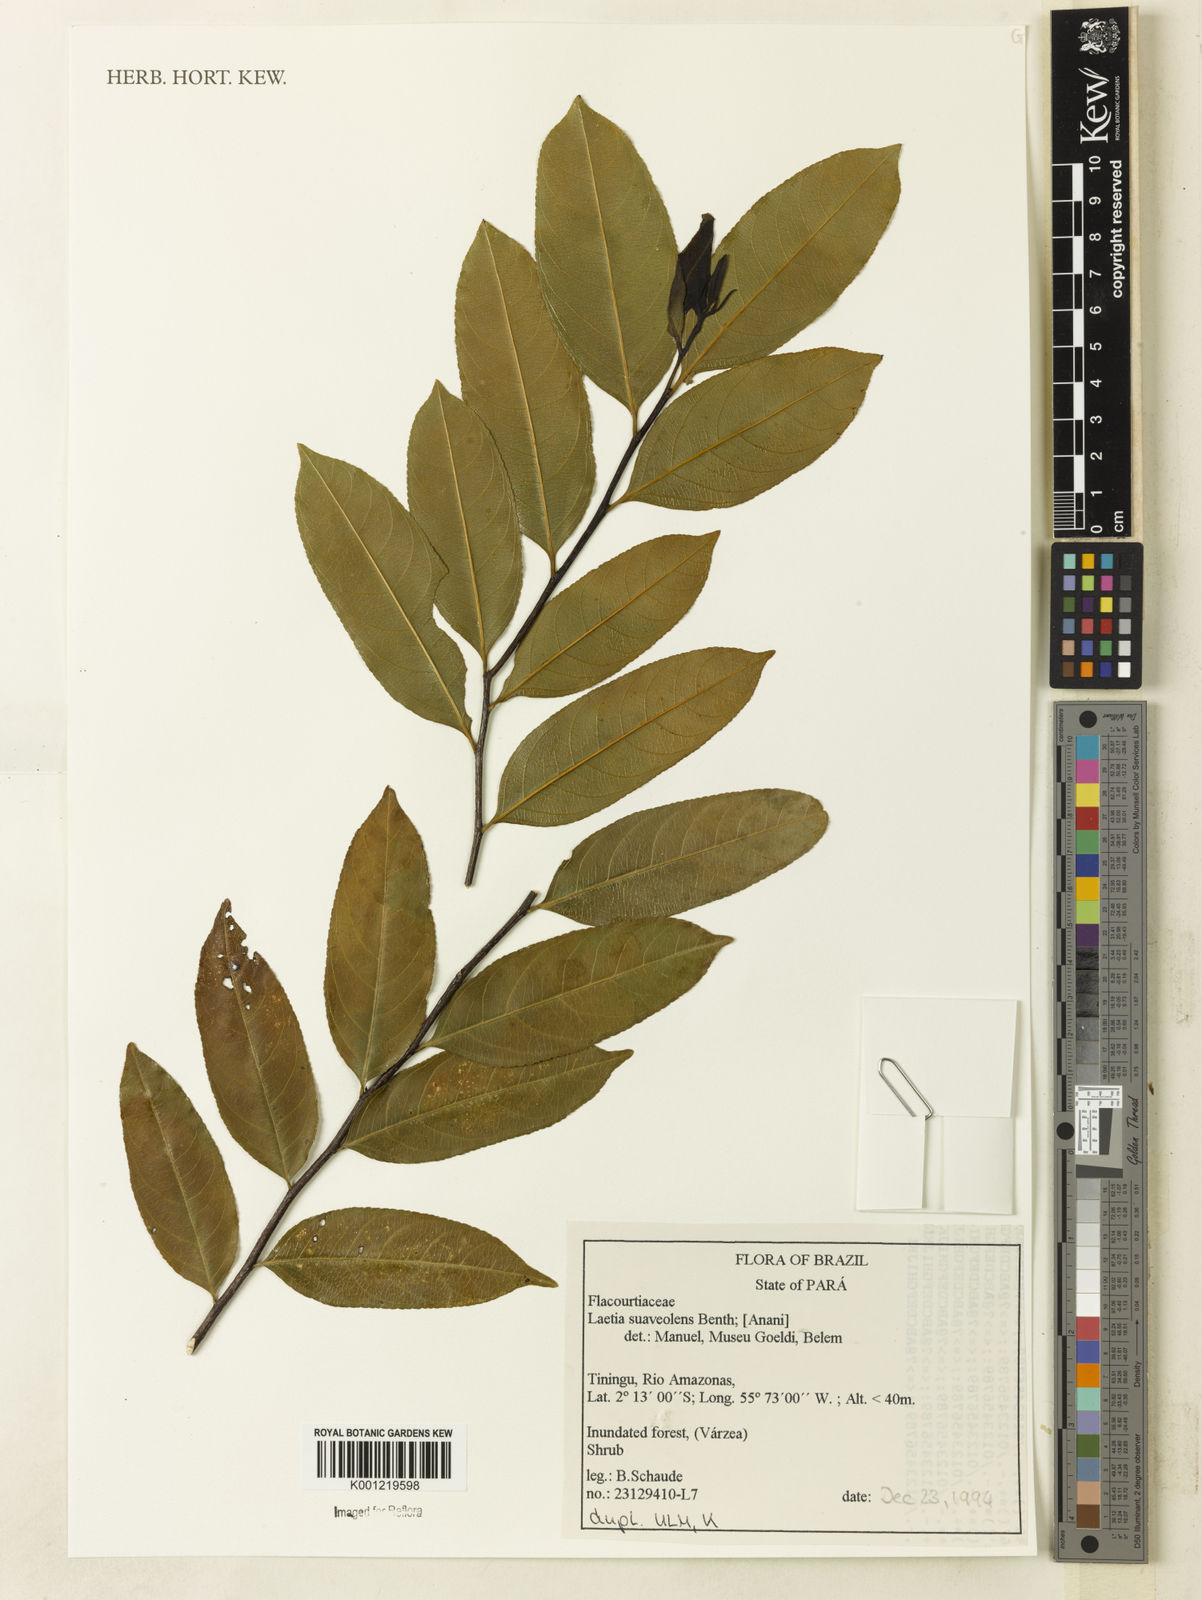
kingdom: Plantae
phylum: Tracheophyta
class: Magnoliopsida
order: Malpighiales
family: Salicaceae
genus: Casearia
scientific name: Casearia suaveolens
